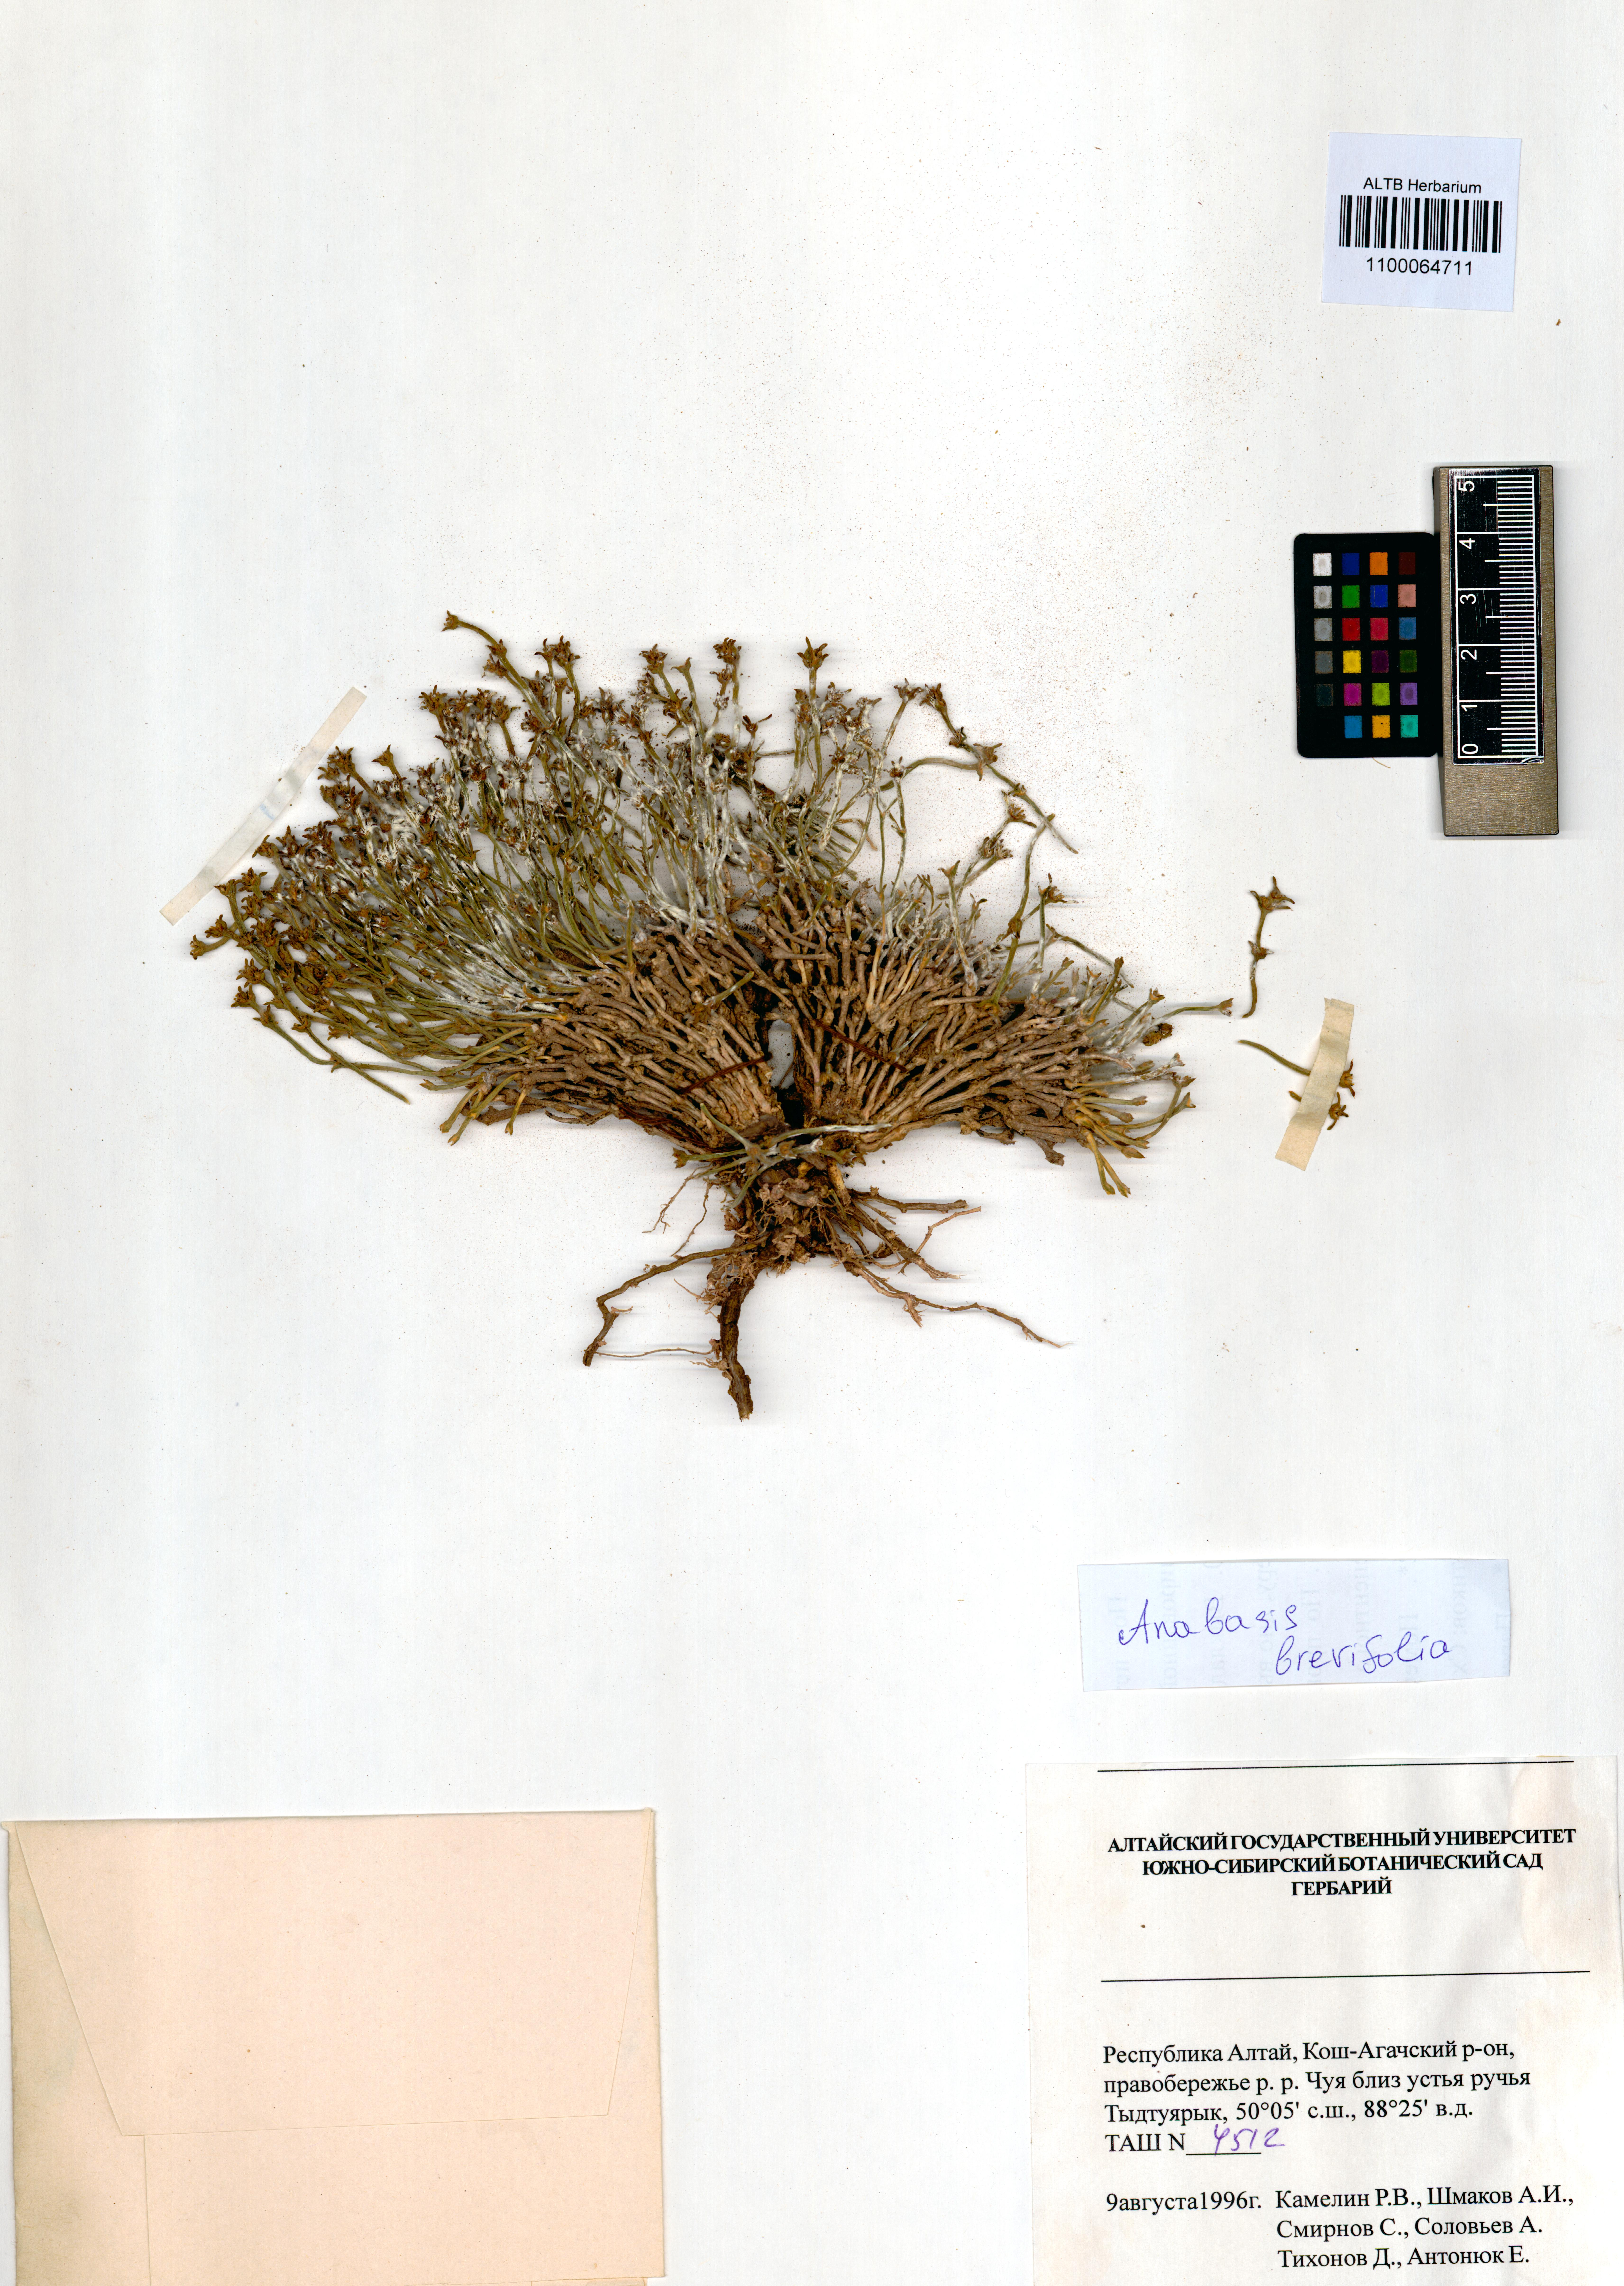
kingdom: Plantae
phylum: Tracheophyta
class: Magnoliopsida
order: Caryophyllales
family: Amaranthaceae
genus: Anabasis
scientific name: Anabasis brevifolia
